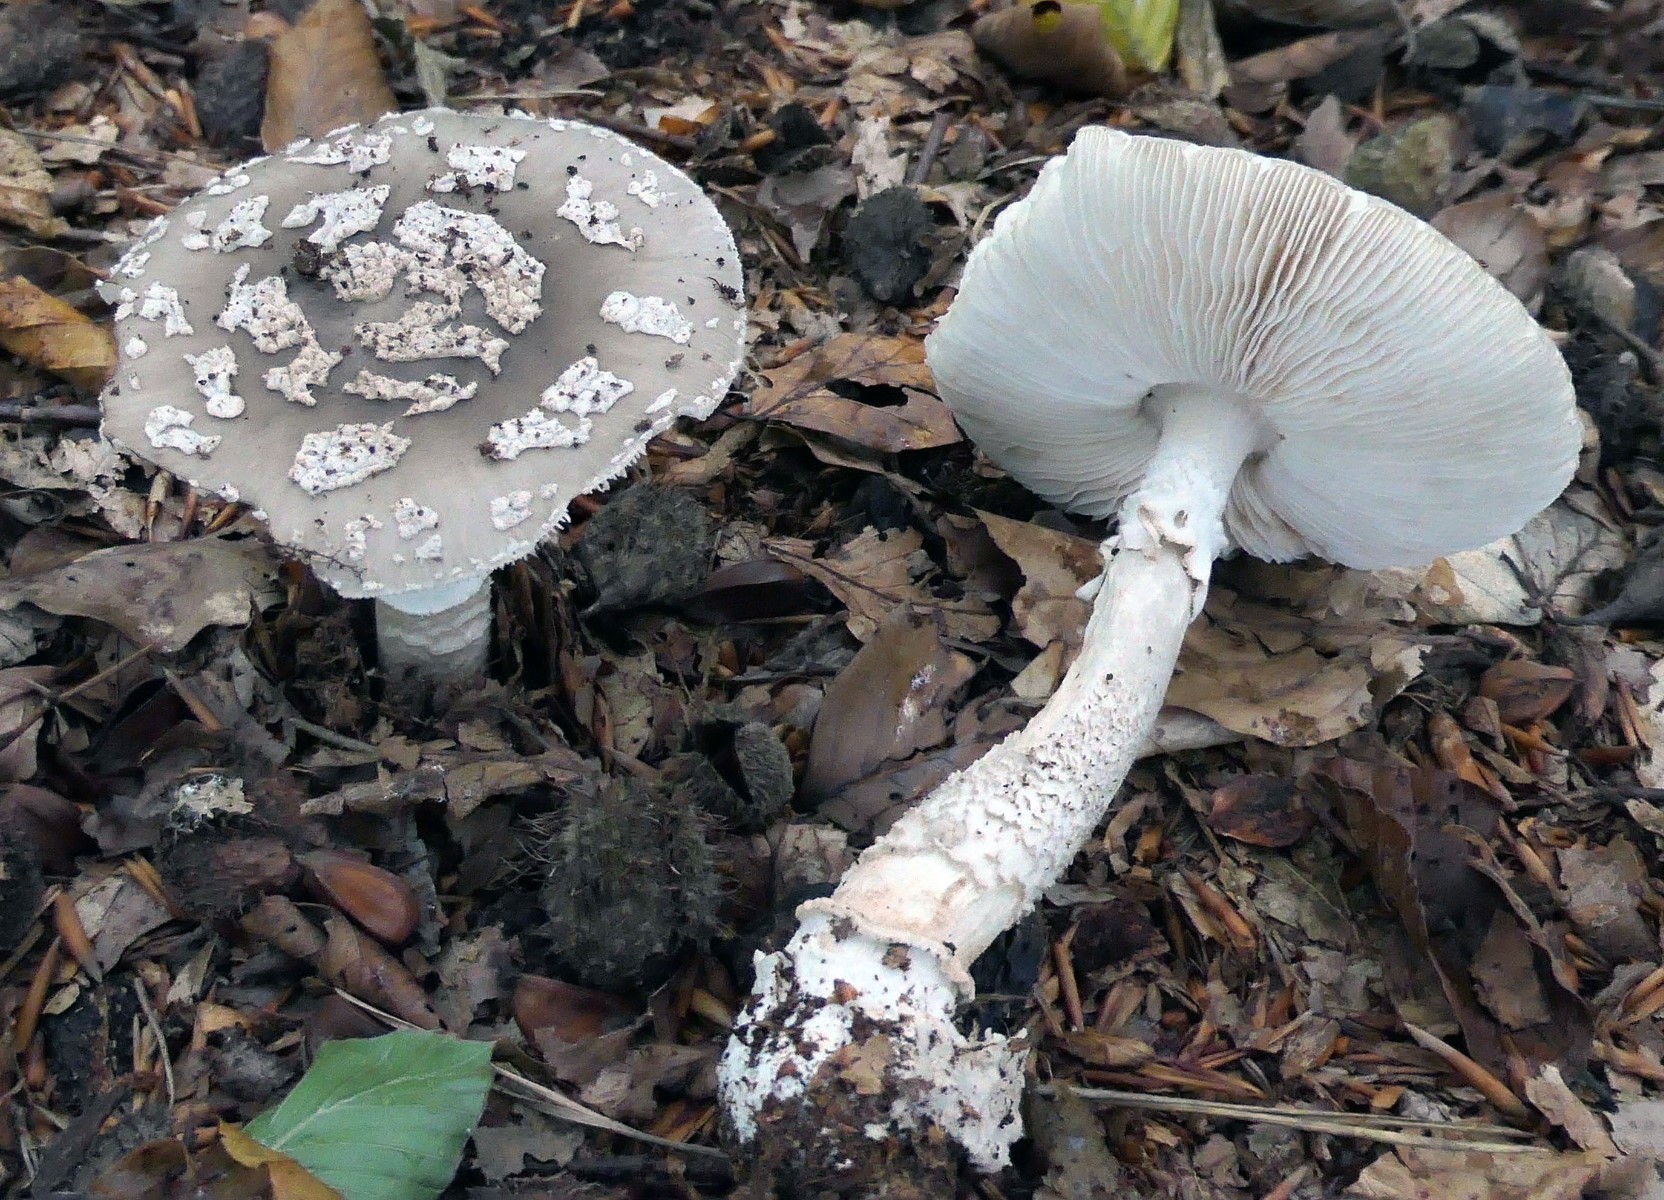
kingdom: Fungi
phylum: Basidiomycota
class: Agaricomycetes
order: Agaricales
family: Amanitaceae
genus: Amanita
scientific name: Amanita
